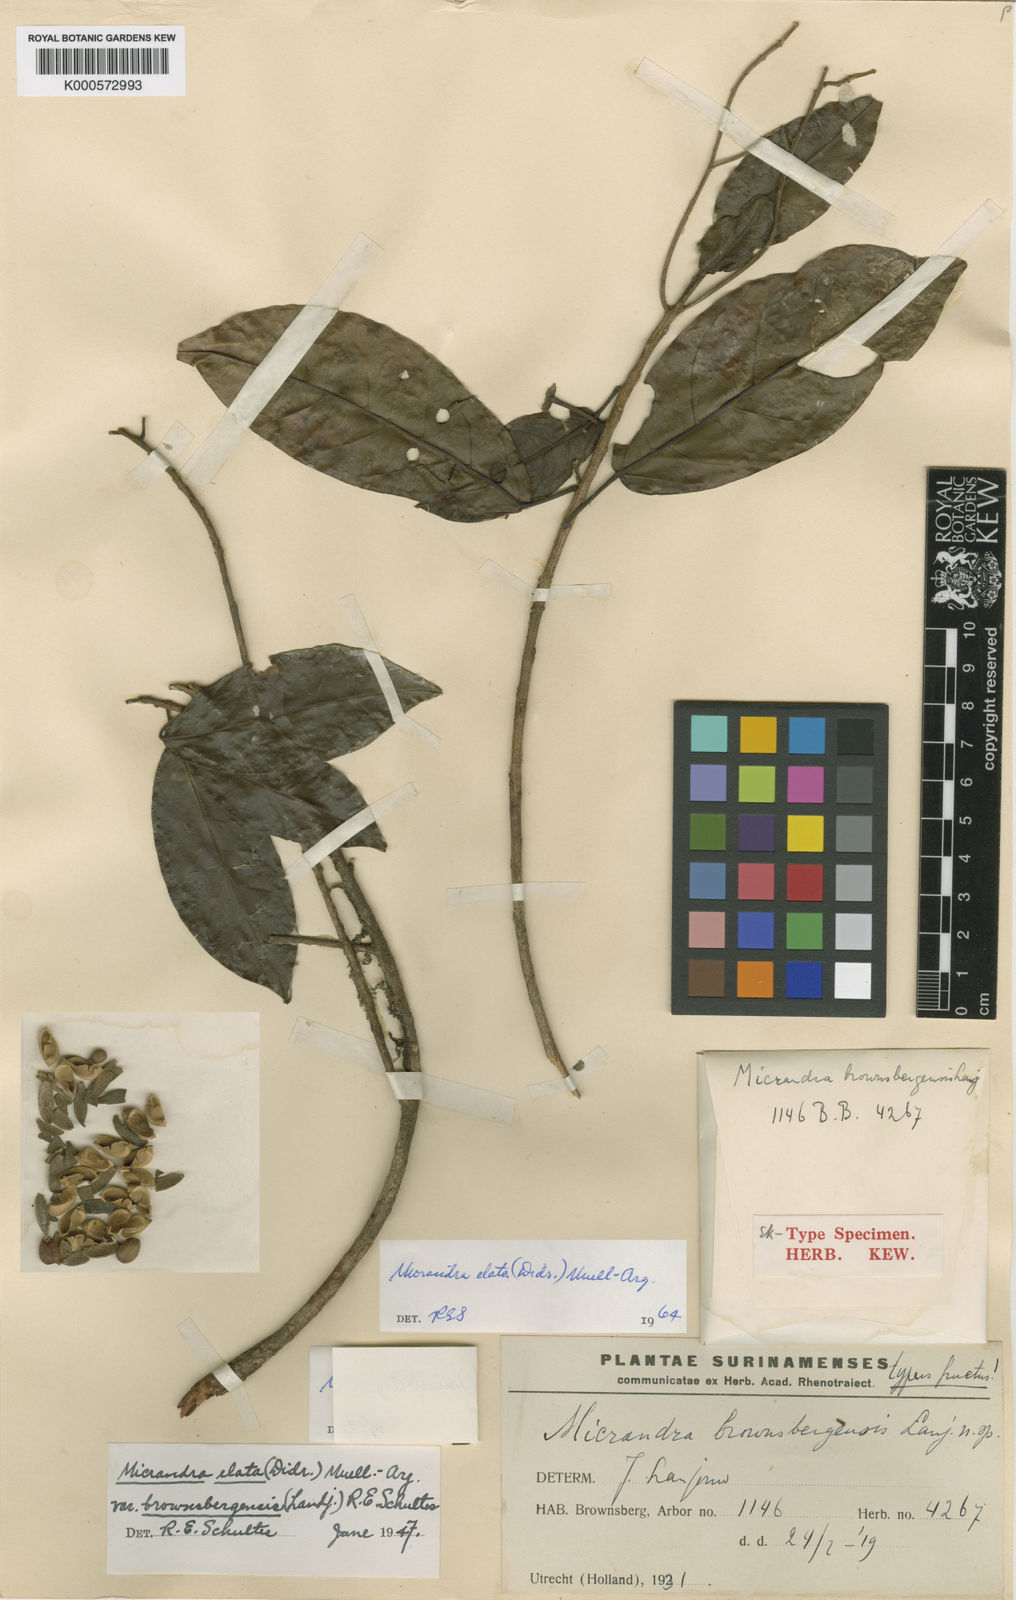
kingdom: Plantae
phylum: Tracheophyta
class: Magnoliopsida
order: Malpighiales
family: Euphorbiaceae
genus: Micrandra
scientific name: Micrandra
